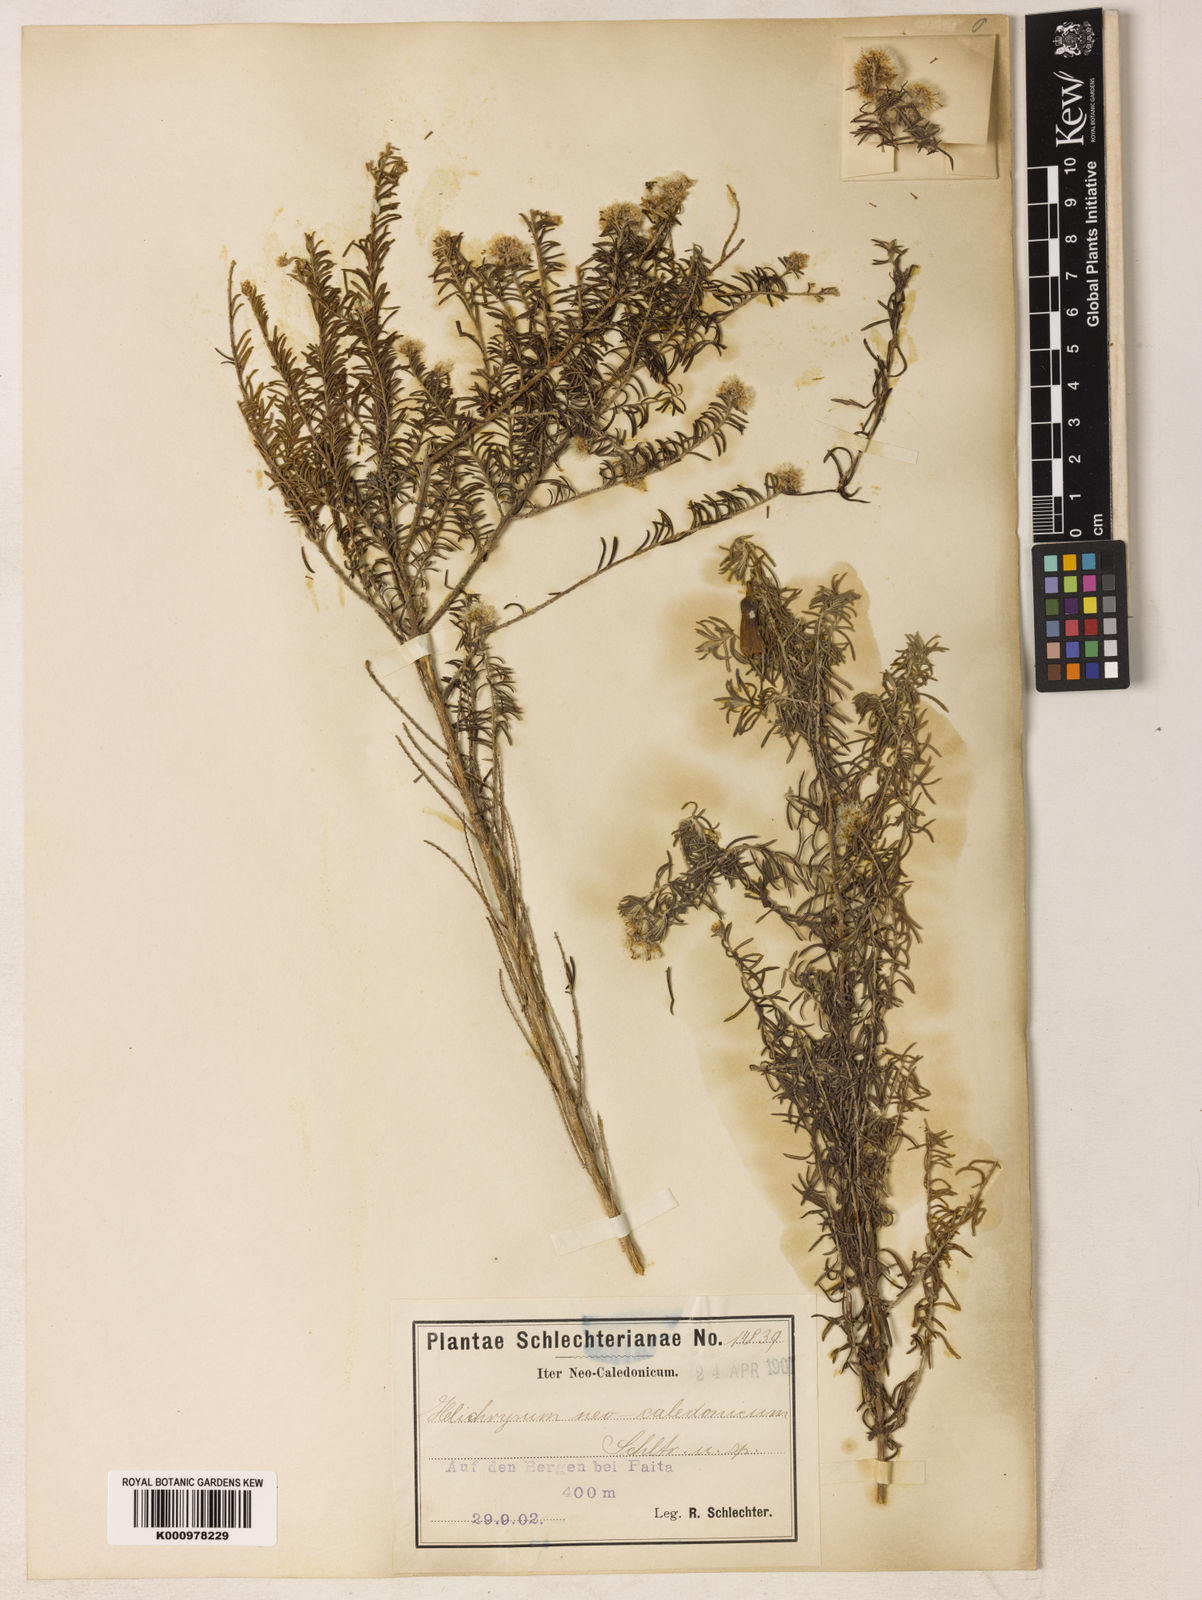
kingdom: Plantae
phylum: Tracheophyta
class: Magnoliopsida
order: Asterales
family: Asteraceae
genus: Cassinia
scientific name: Cassinia leptophylla
